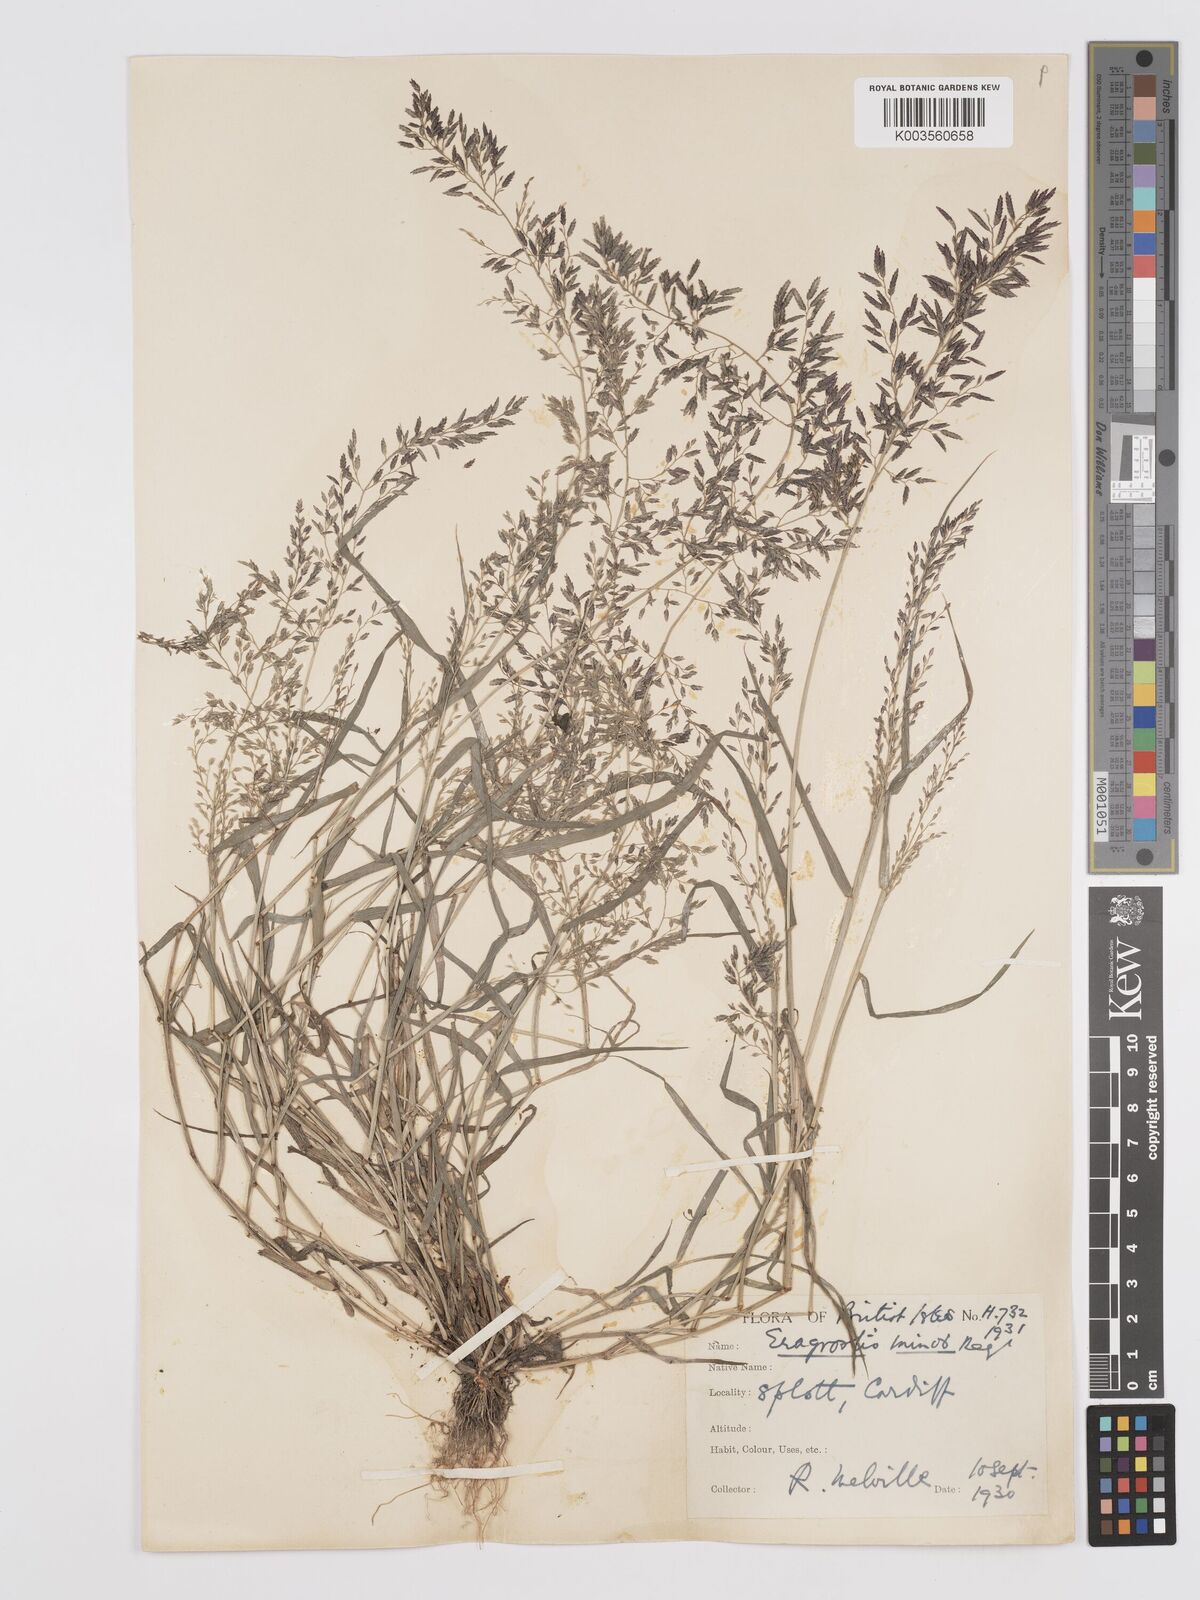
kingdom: Plantae
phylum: Tracheophyta
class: Liliopsida
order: Poales
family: Poaceae
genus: Eragrostis
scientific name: Eragrostis minor
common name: Small love-grass
